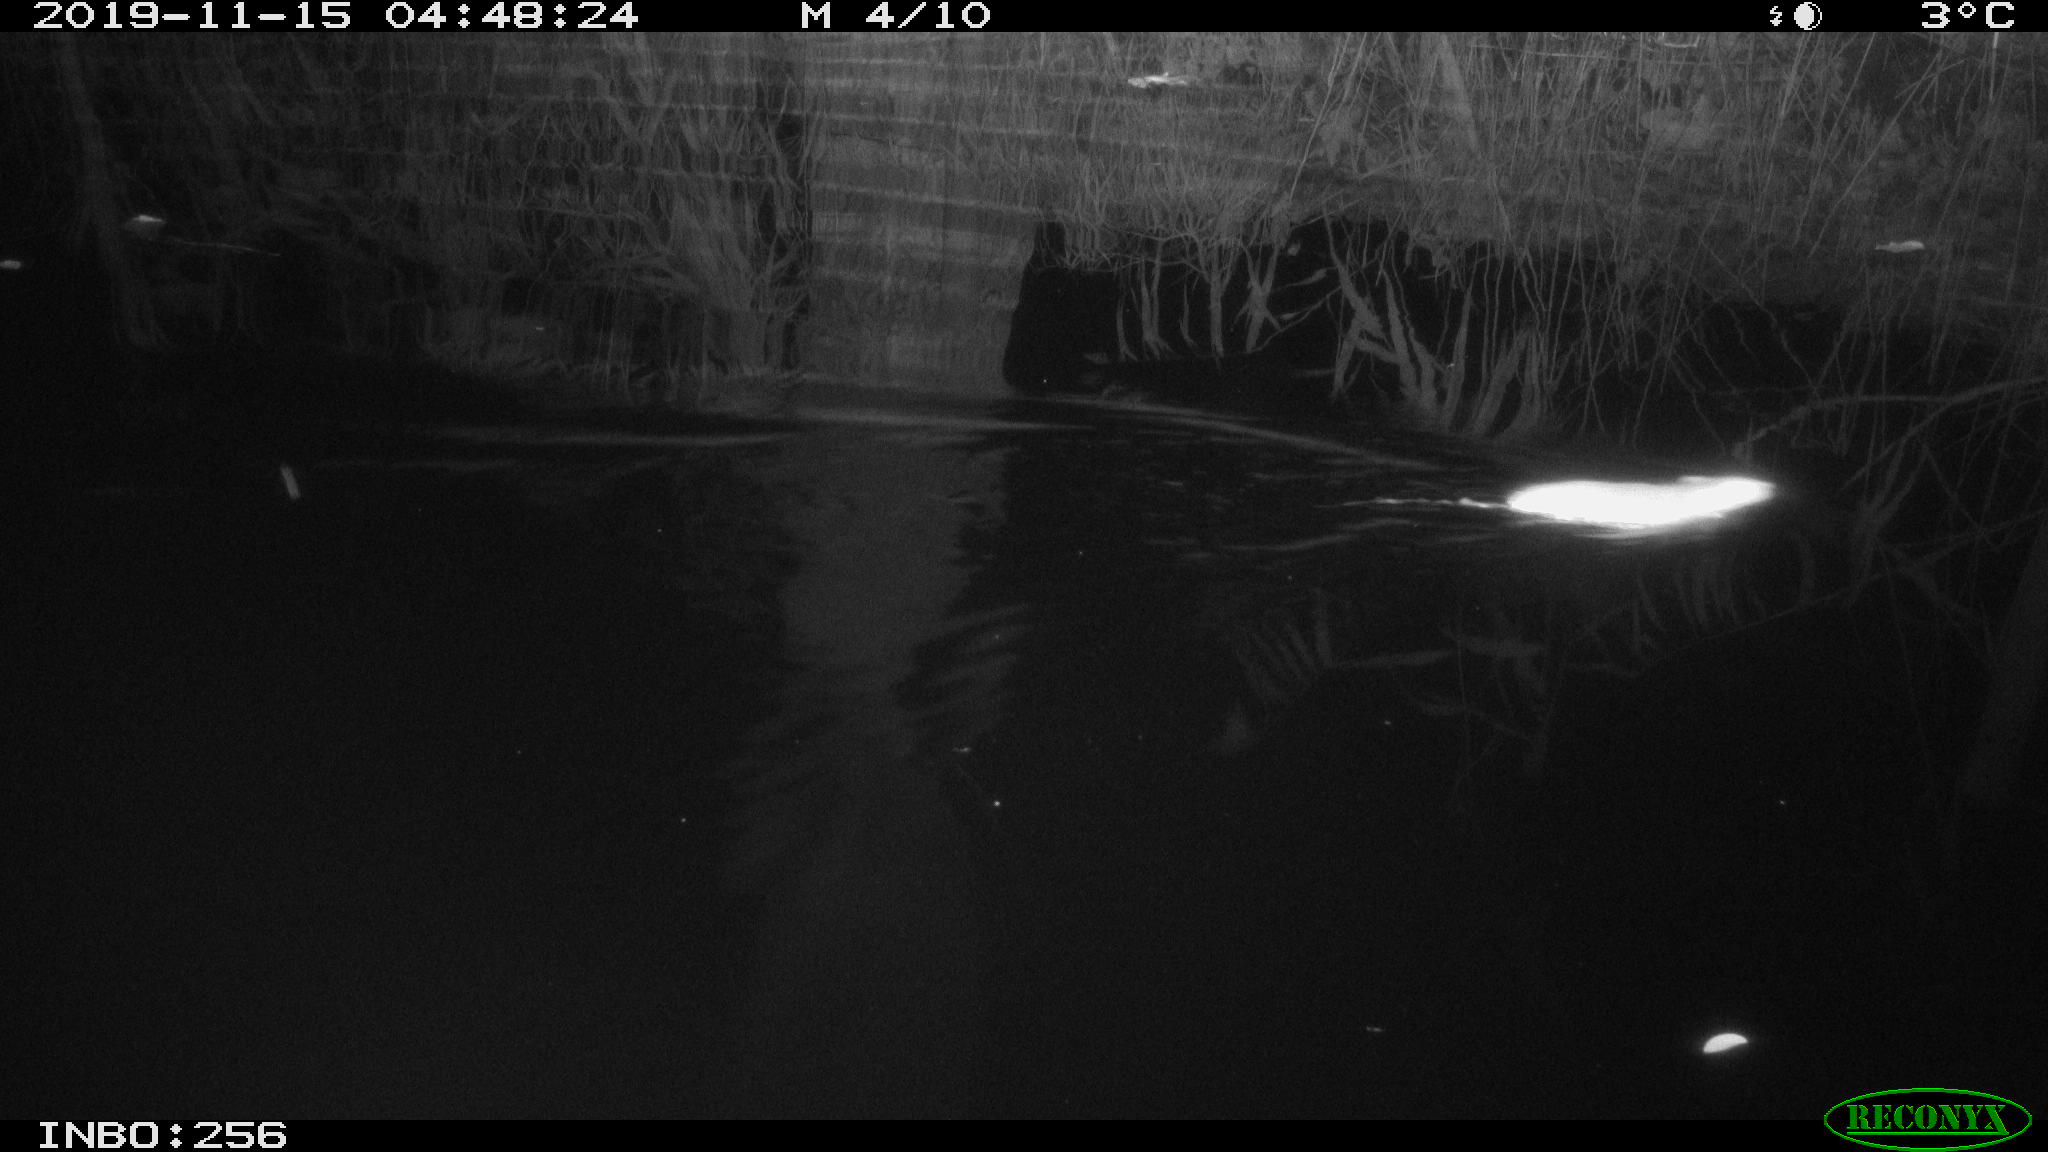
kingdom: Animalia
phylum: Chordata
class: Mammalia
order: Rodentia
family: Muridae
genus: Rattus
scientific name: Rattus norvegicus
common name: Brown rat
